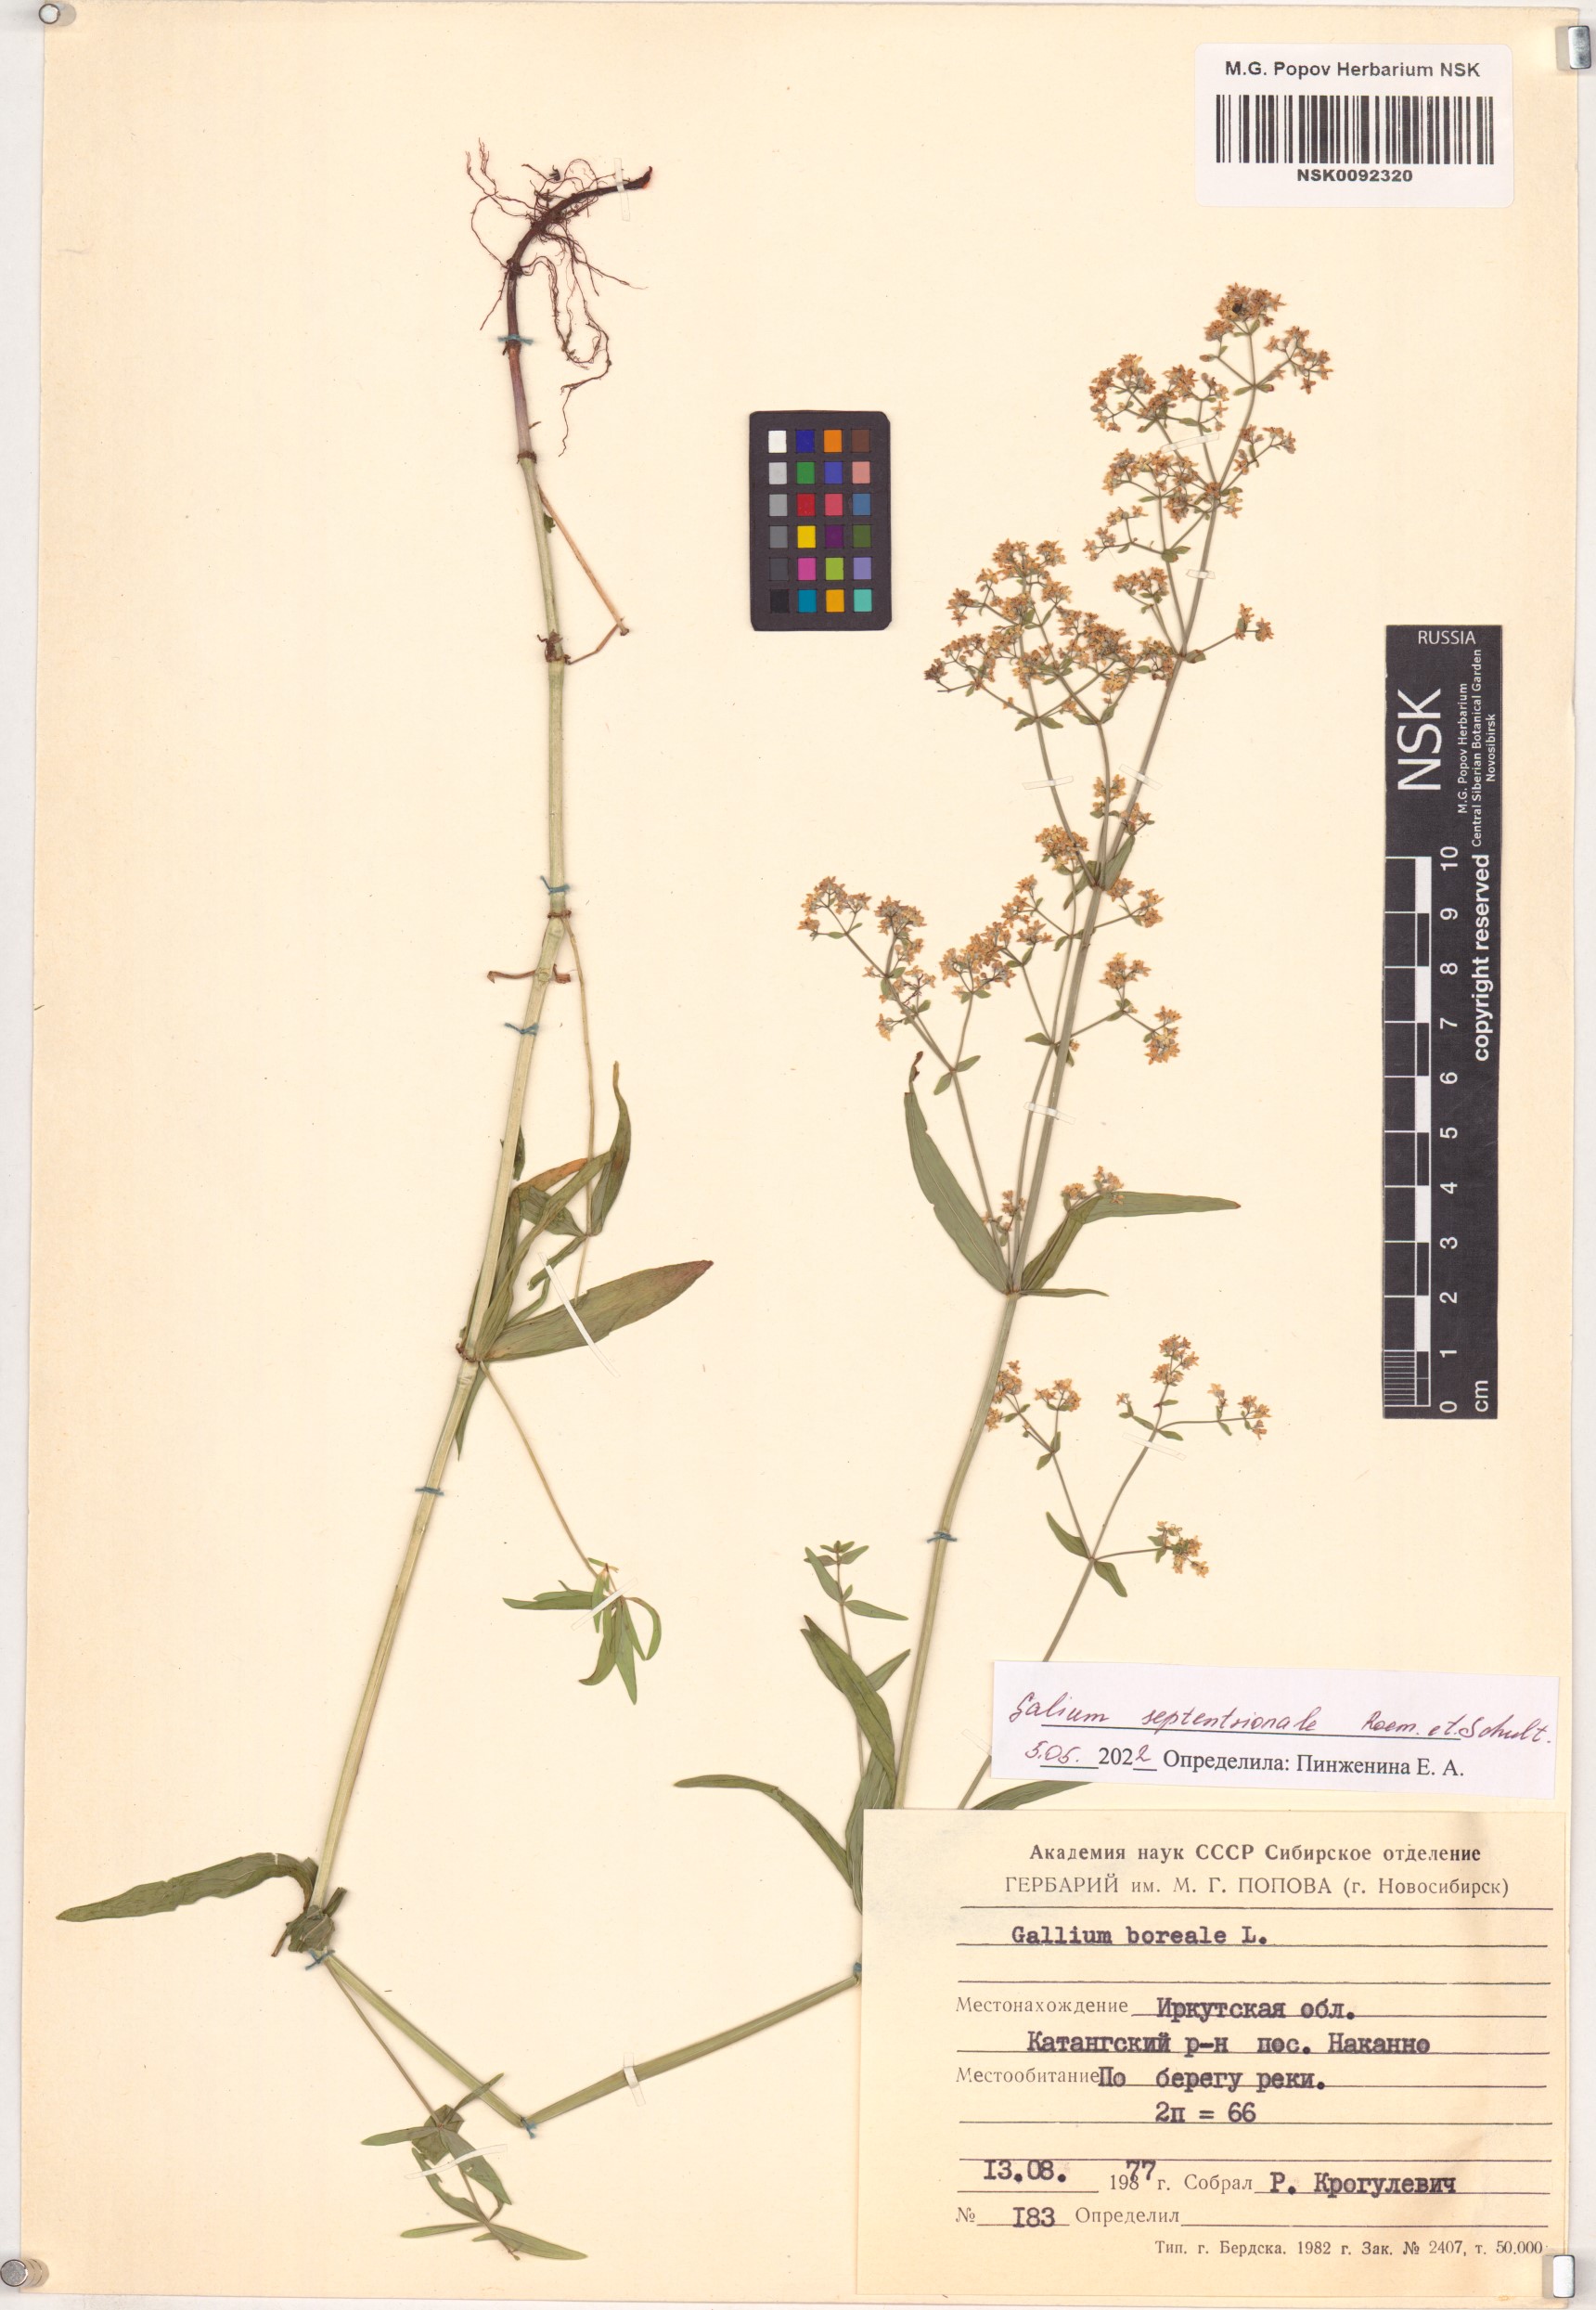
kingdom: Plantae
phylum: Tracheophyta
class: Magnoliopsida
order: Gentianales
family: Rubiaceae
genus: Galium
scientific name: Galium boreale
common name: Northern bedstraw
